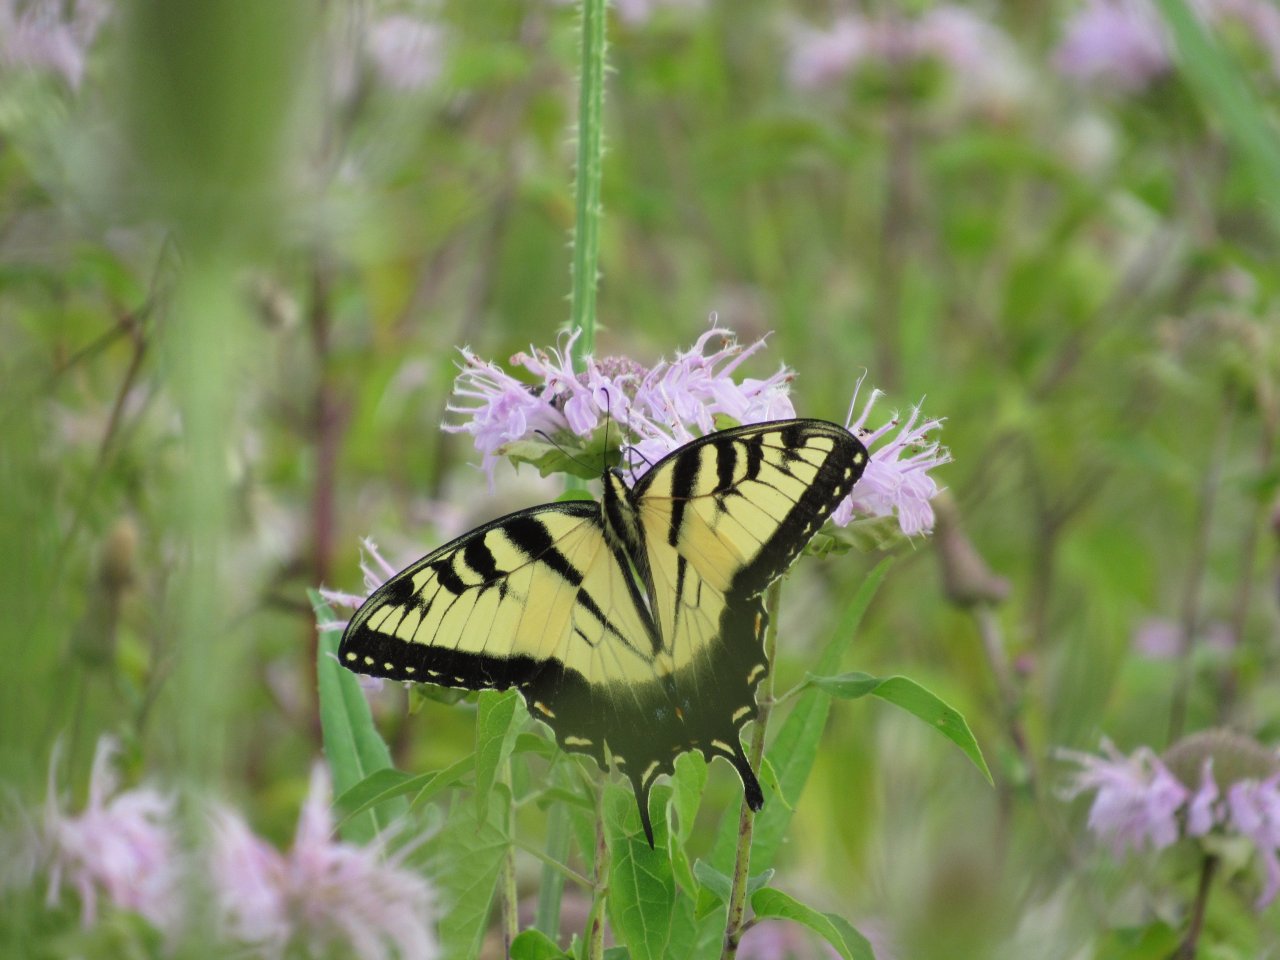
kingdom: Animalia
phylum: Arthropoda
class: Insecta
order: Lepidoptera
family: Papilionidae
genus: Pterourus
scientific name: Pterourus glaucus
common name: Eastern Tiger Swallowtail
